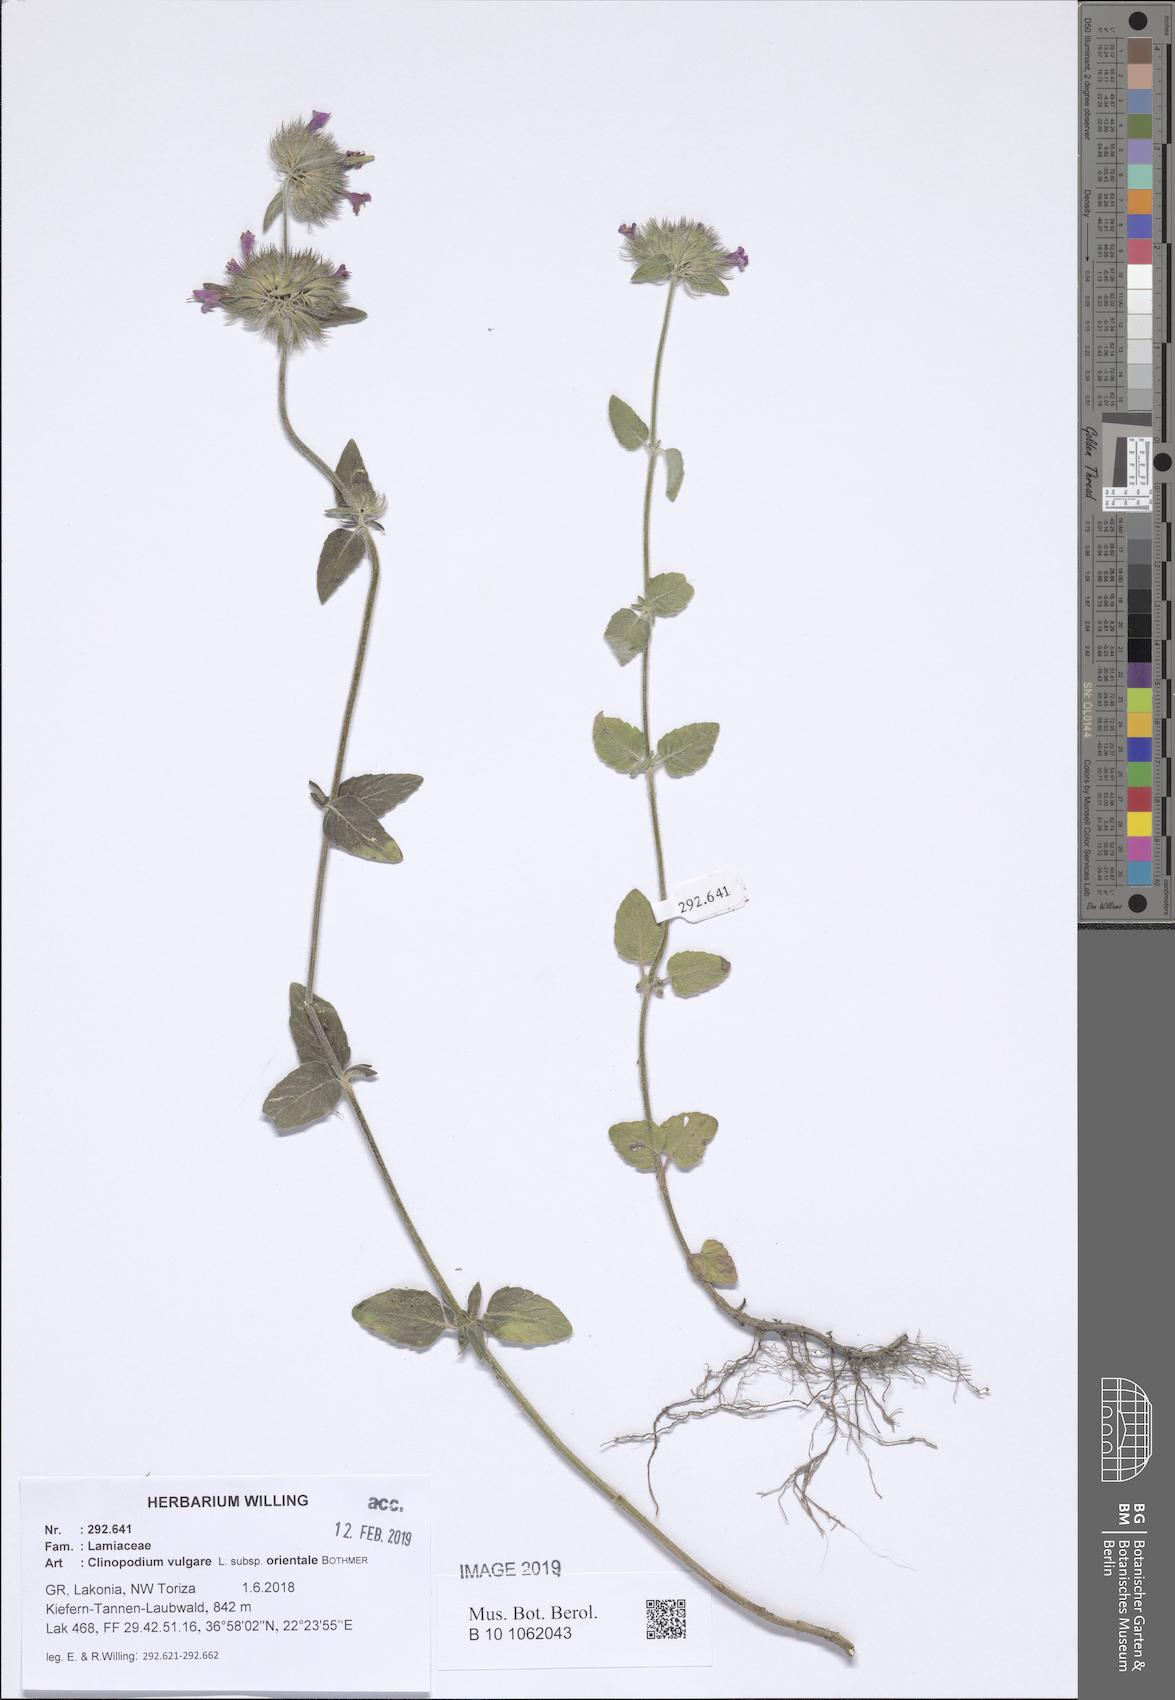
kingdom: Plantae
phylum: Tracheophyta
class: Magnoliopsida
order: Lamiales
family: Lamiaceae
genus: Clinopodium
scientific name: Clinopodium vulgare
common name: Wild basil
